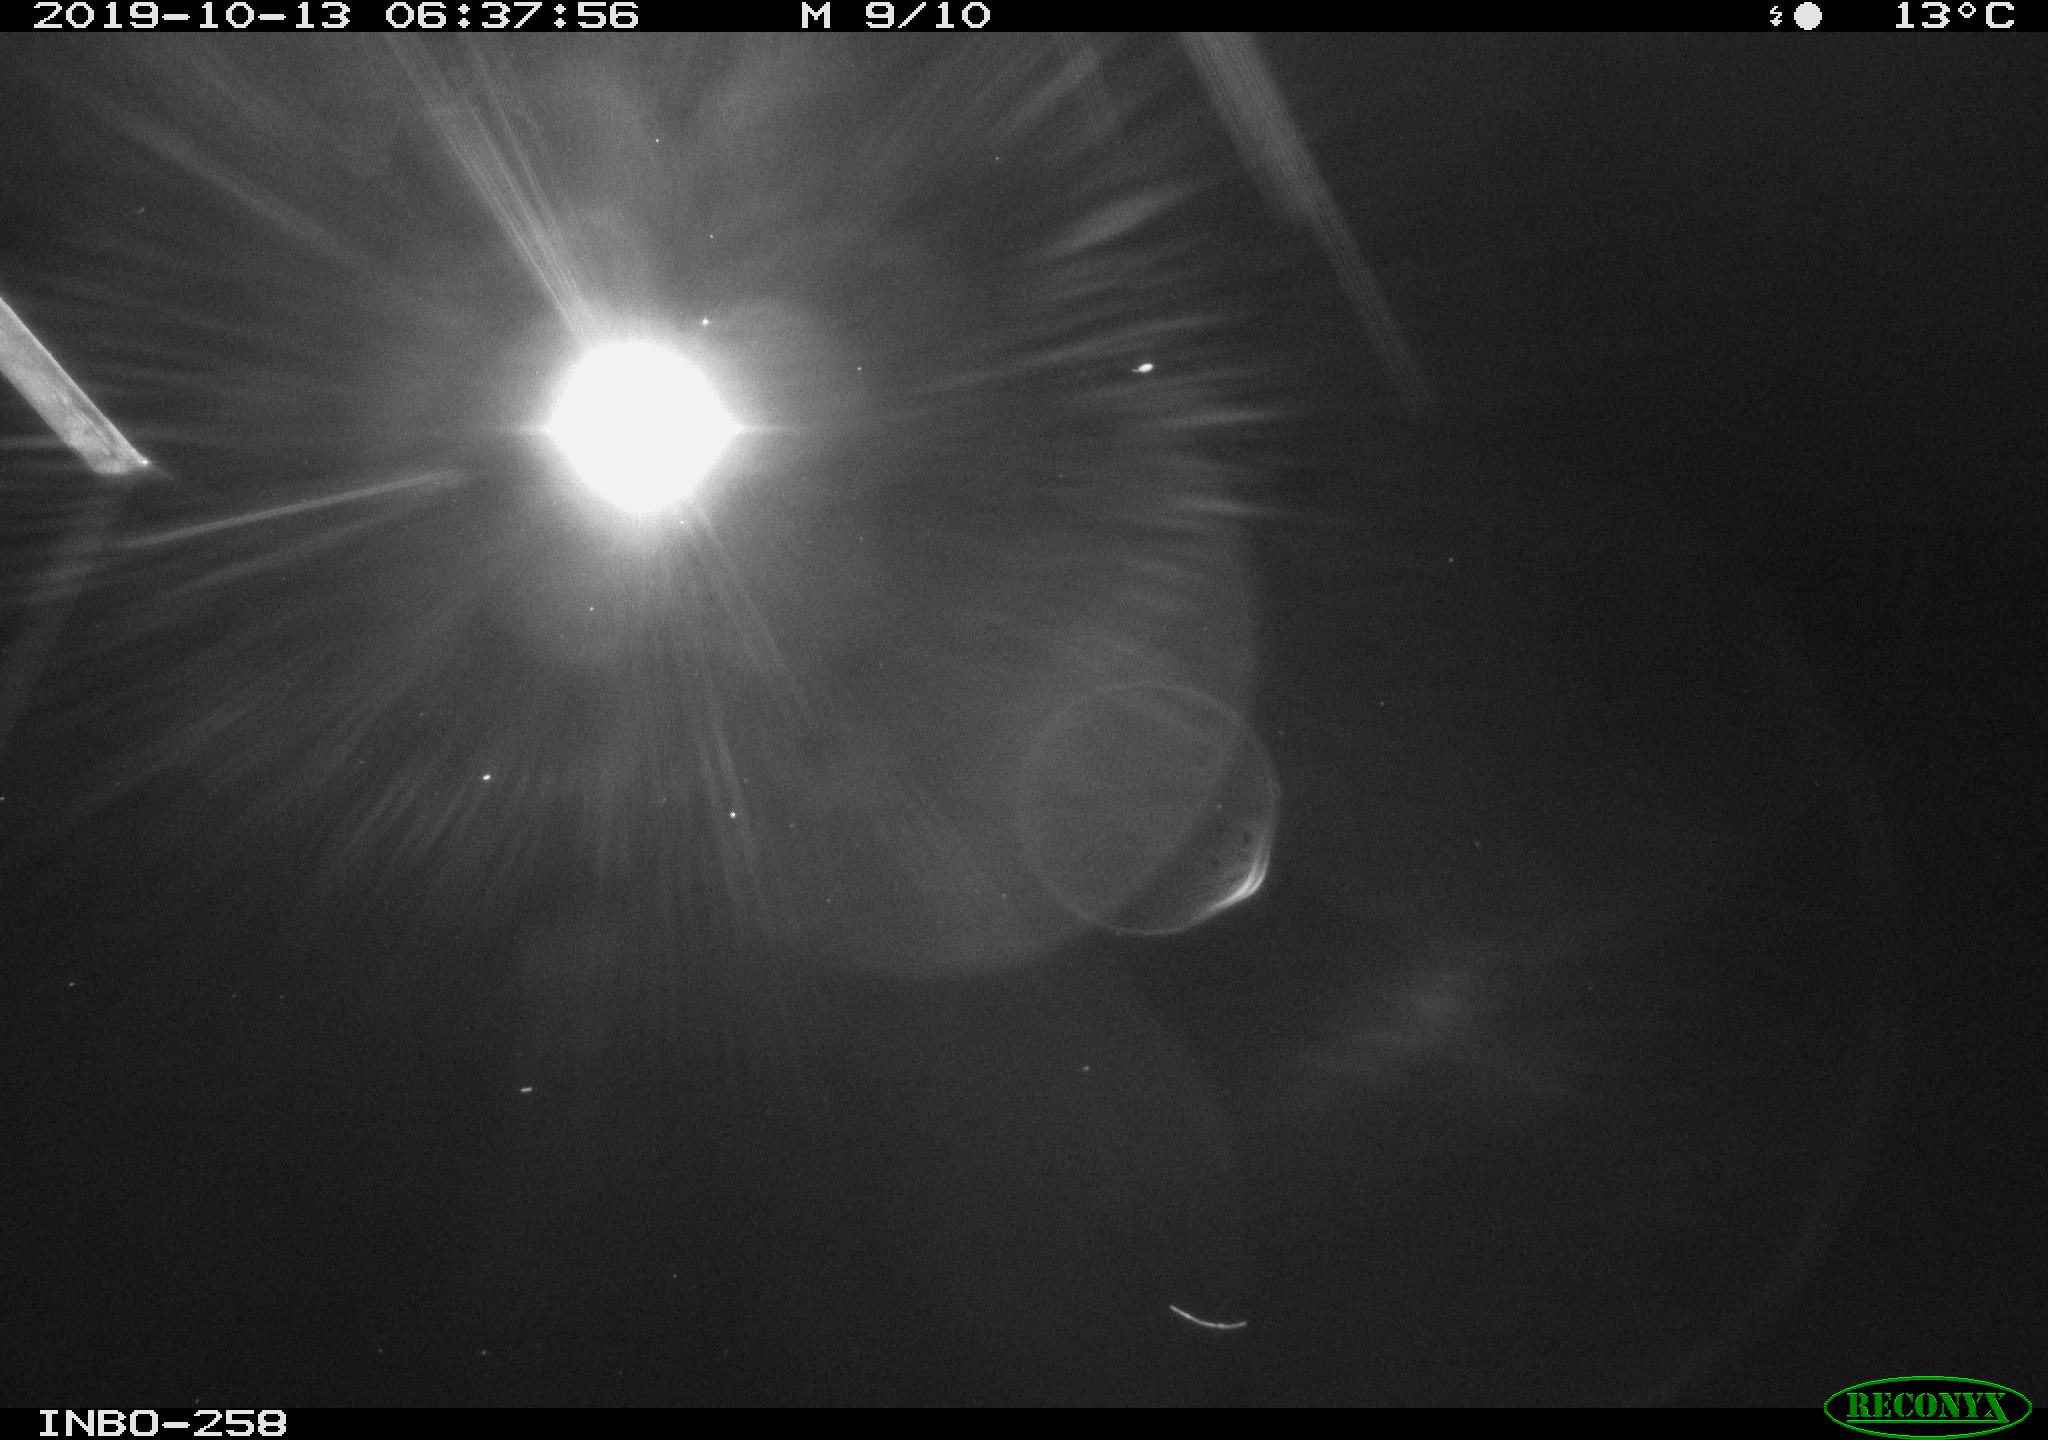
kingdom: Animalia
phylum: Chordata
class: Aves
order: Anseriformes
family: Anatidae
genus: Anas
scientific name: Anas platyrhynchos
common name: Mallard
